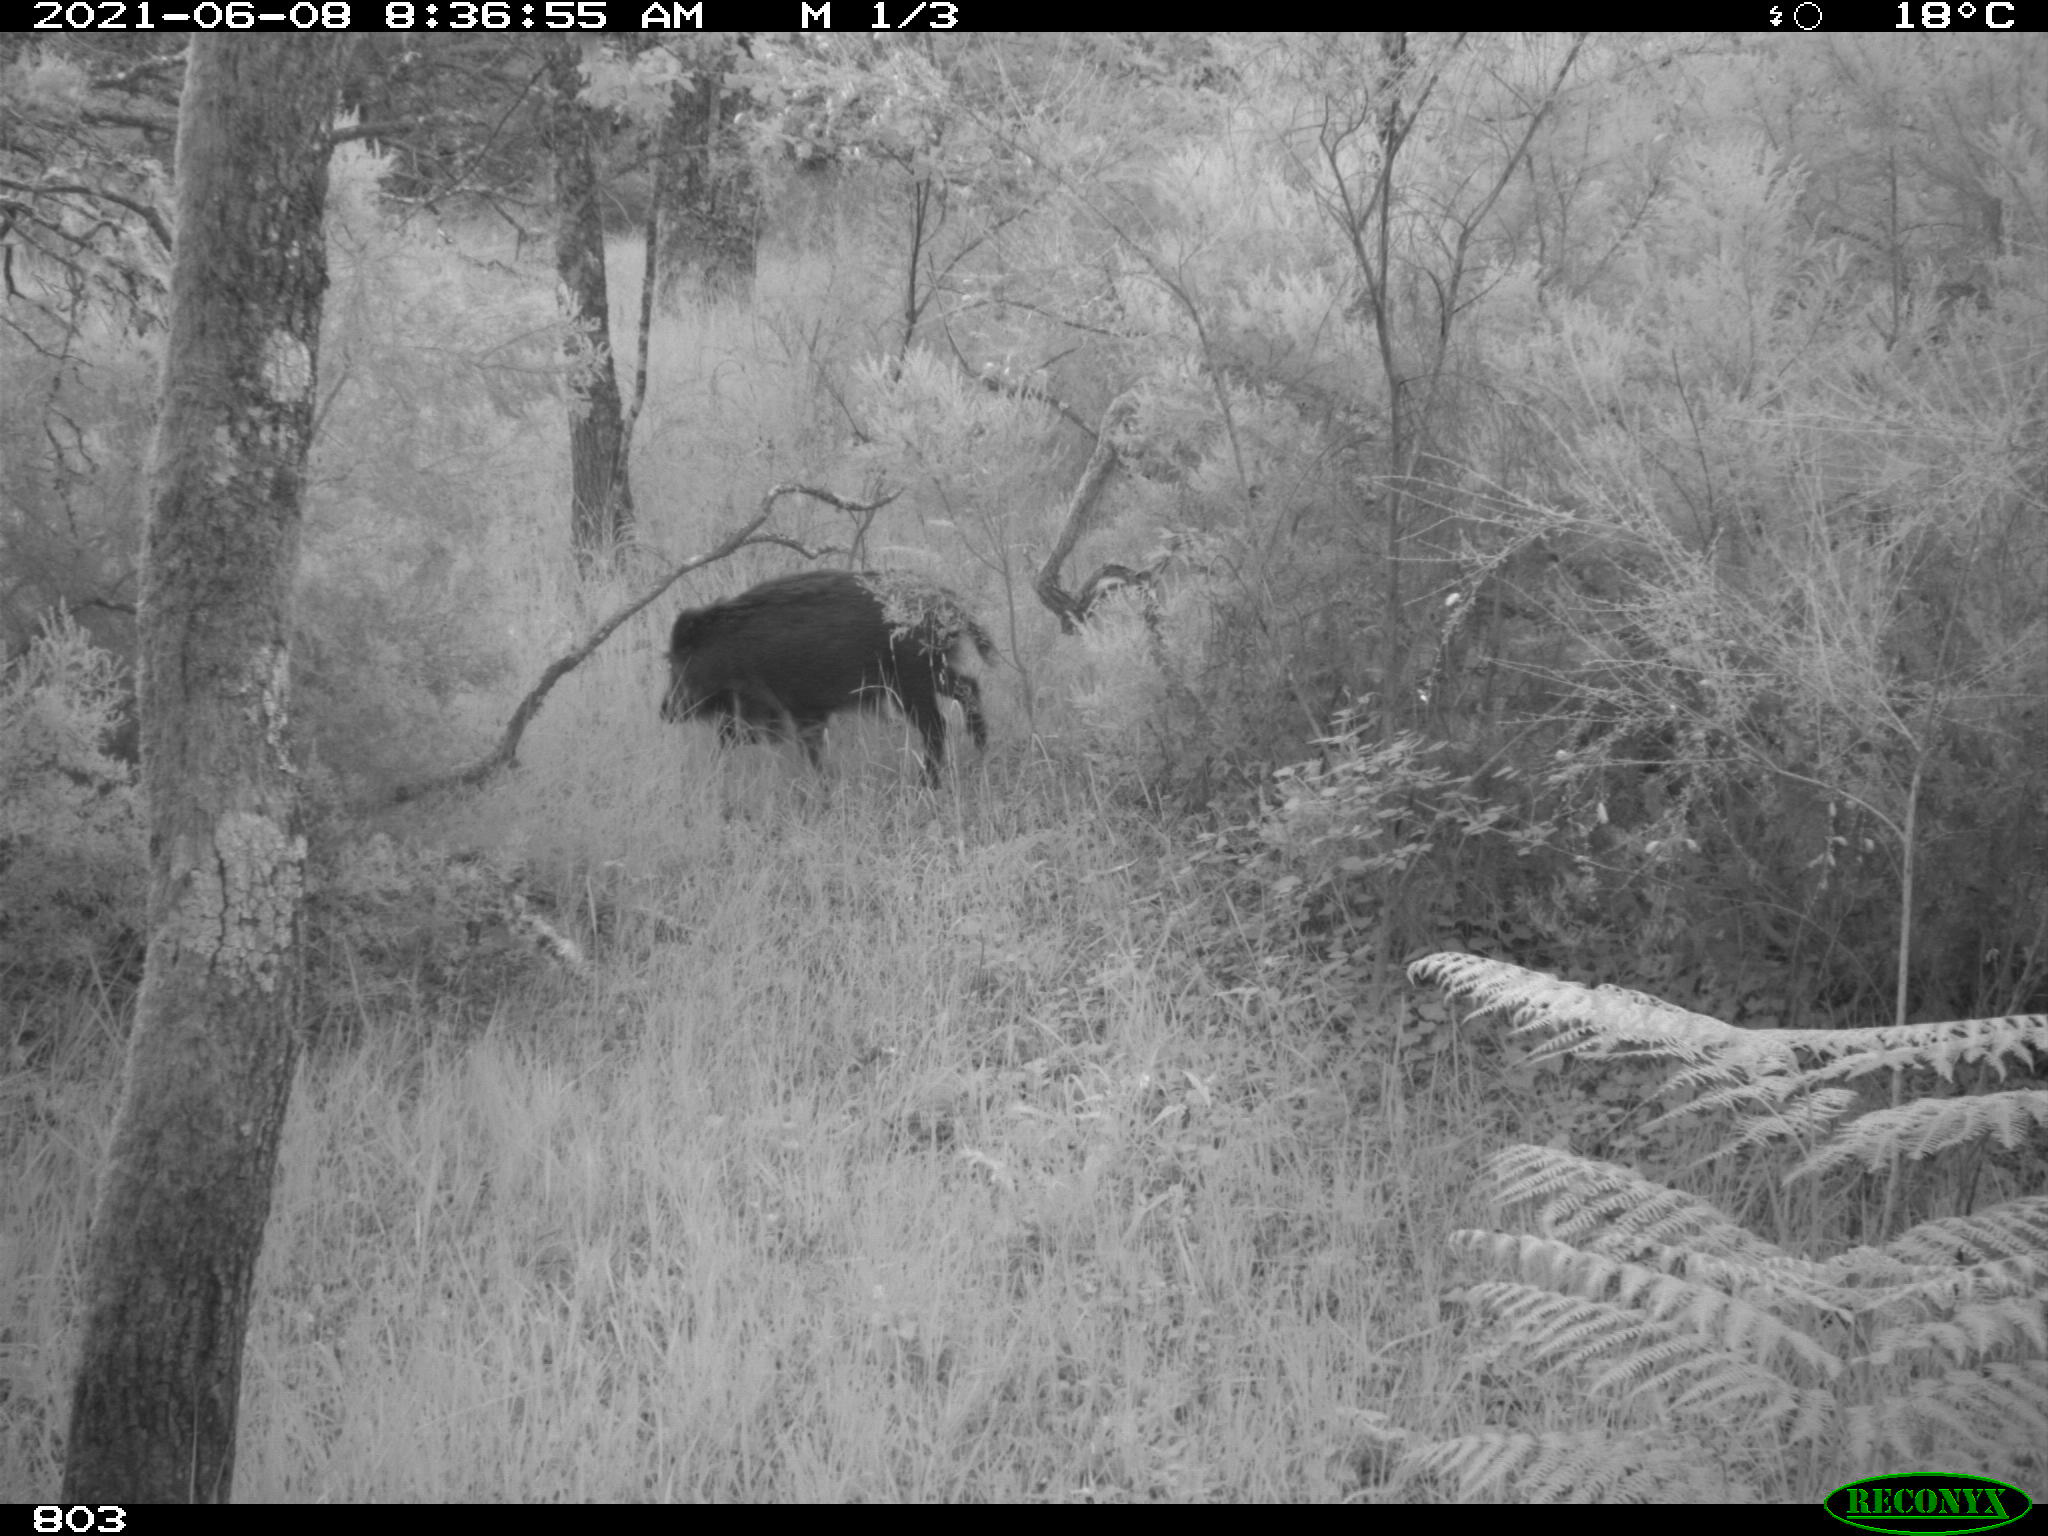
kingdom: Animalia
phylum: Chordata
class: Mammalia
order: Artiodactyla
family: Suidae
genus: Sus
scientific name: Sus scrofa
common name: Wild boar
